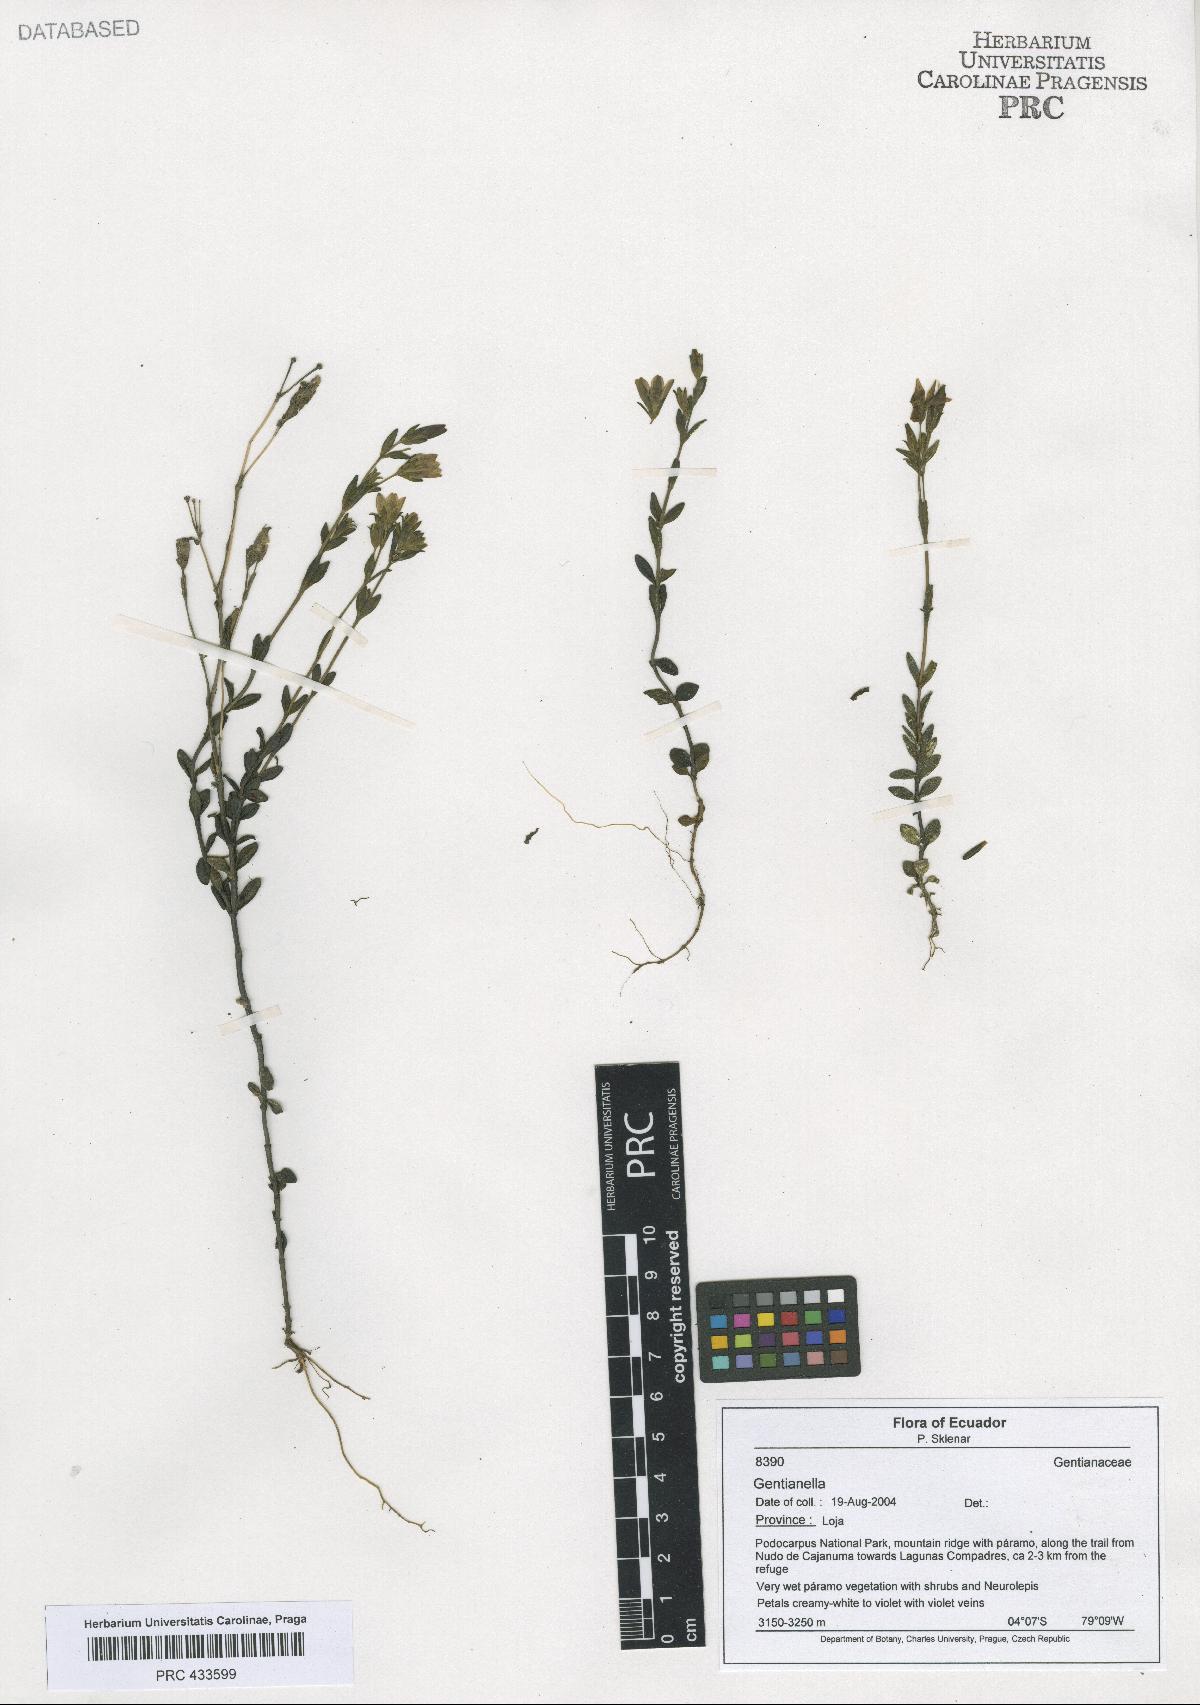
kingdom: Plantae
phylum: Tracheophyta
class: Magnoliopsida
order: Gentianales
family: Gentianaceae
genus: Gentianella
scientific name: Gentianella
